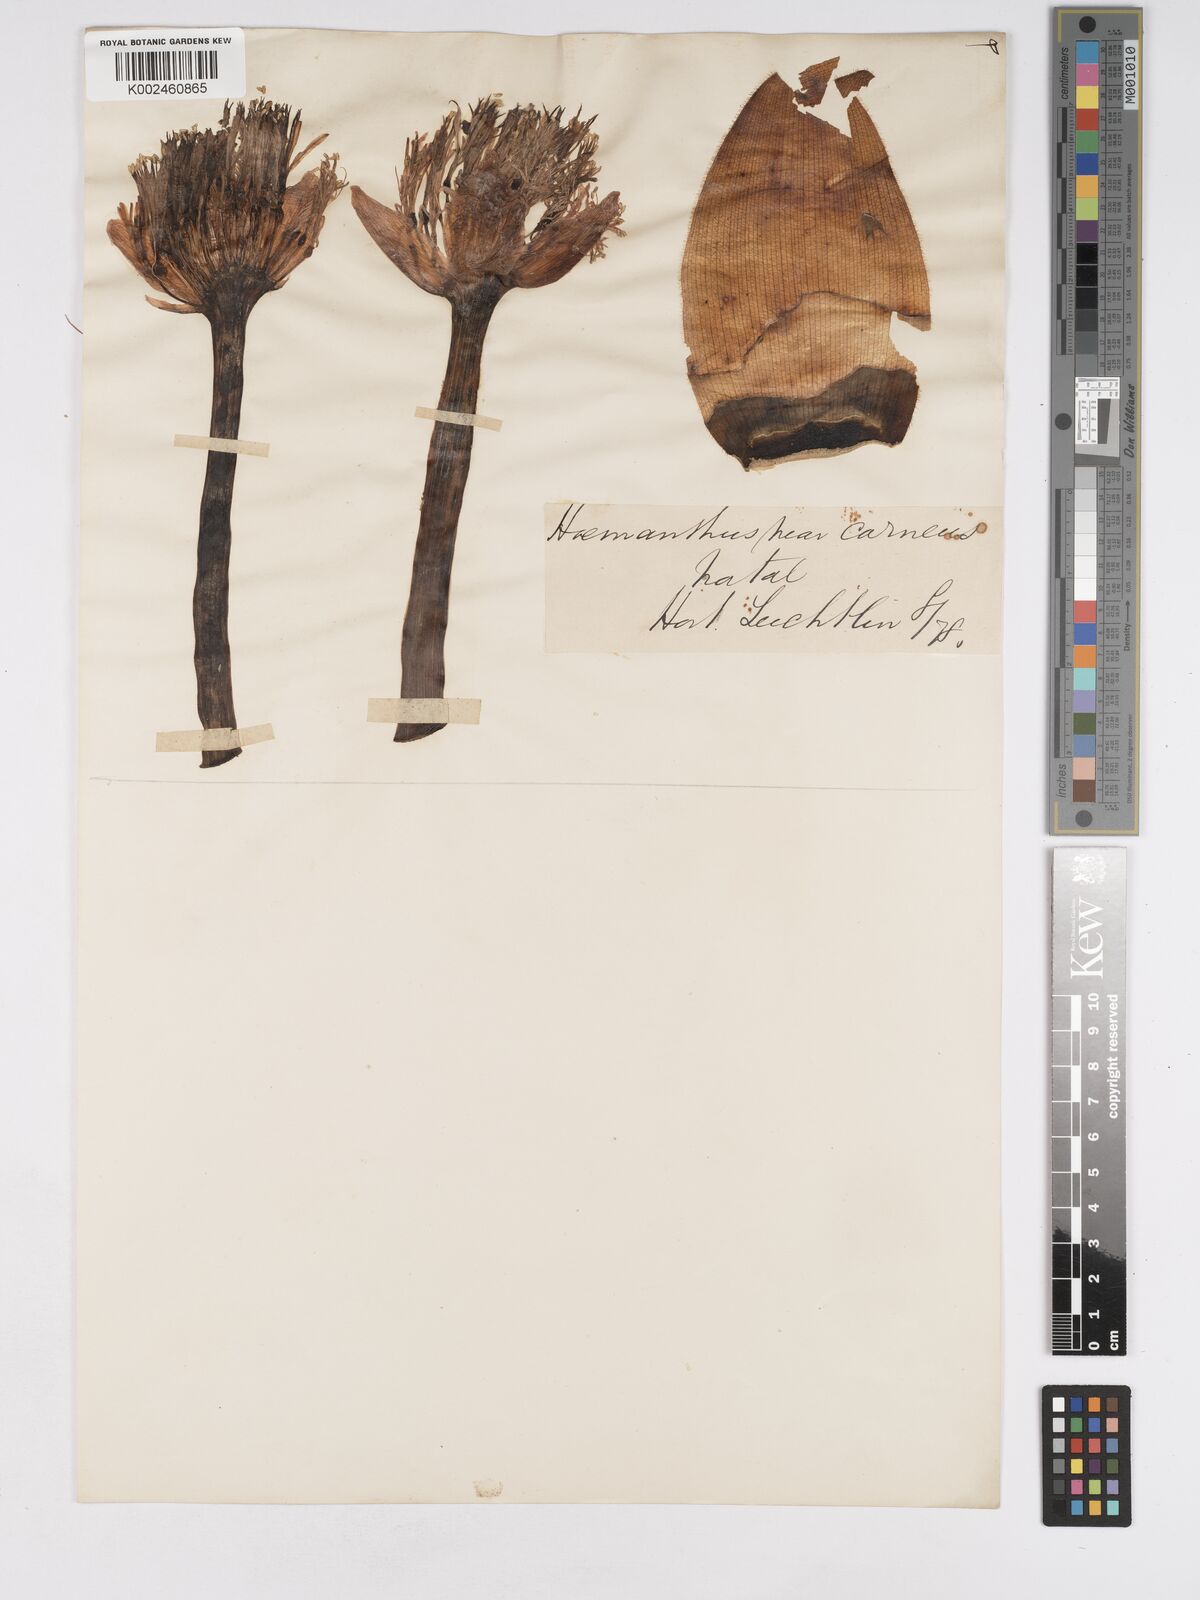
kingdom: Plantae
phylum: Tracheophyta
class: Liliopsida
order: Asparagales
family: Amaryllidaceae
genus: Haemanthus
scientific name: Haemanthus humilis
